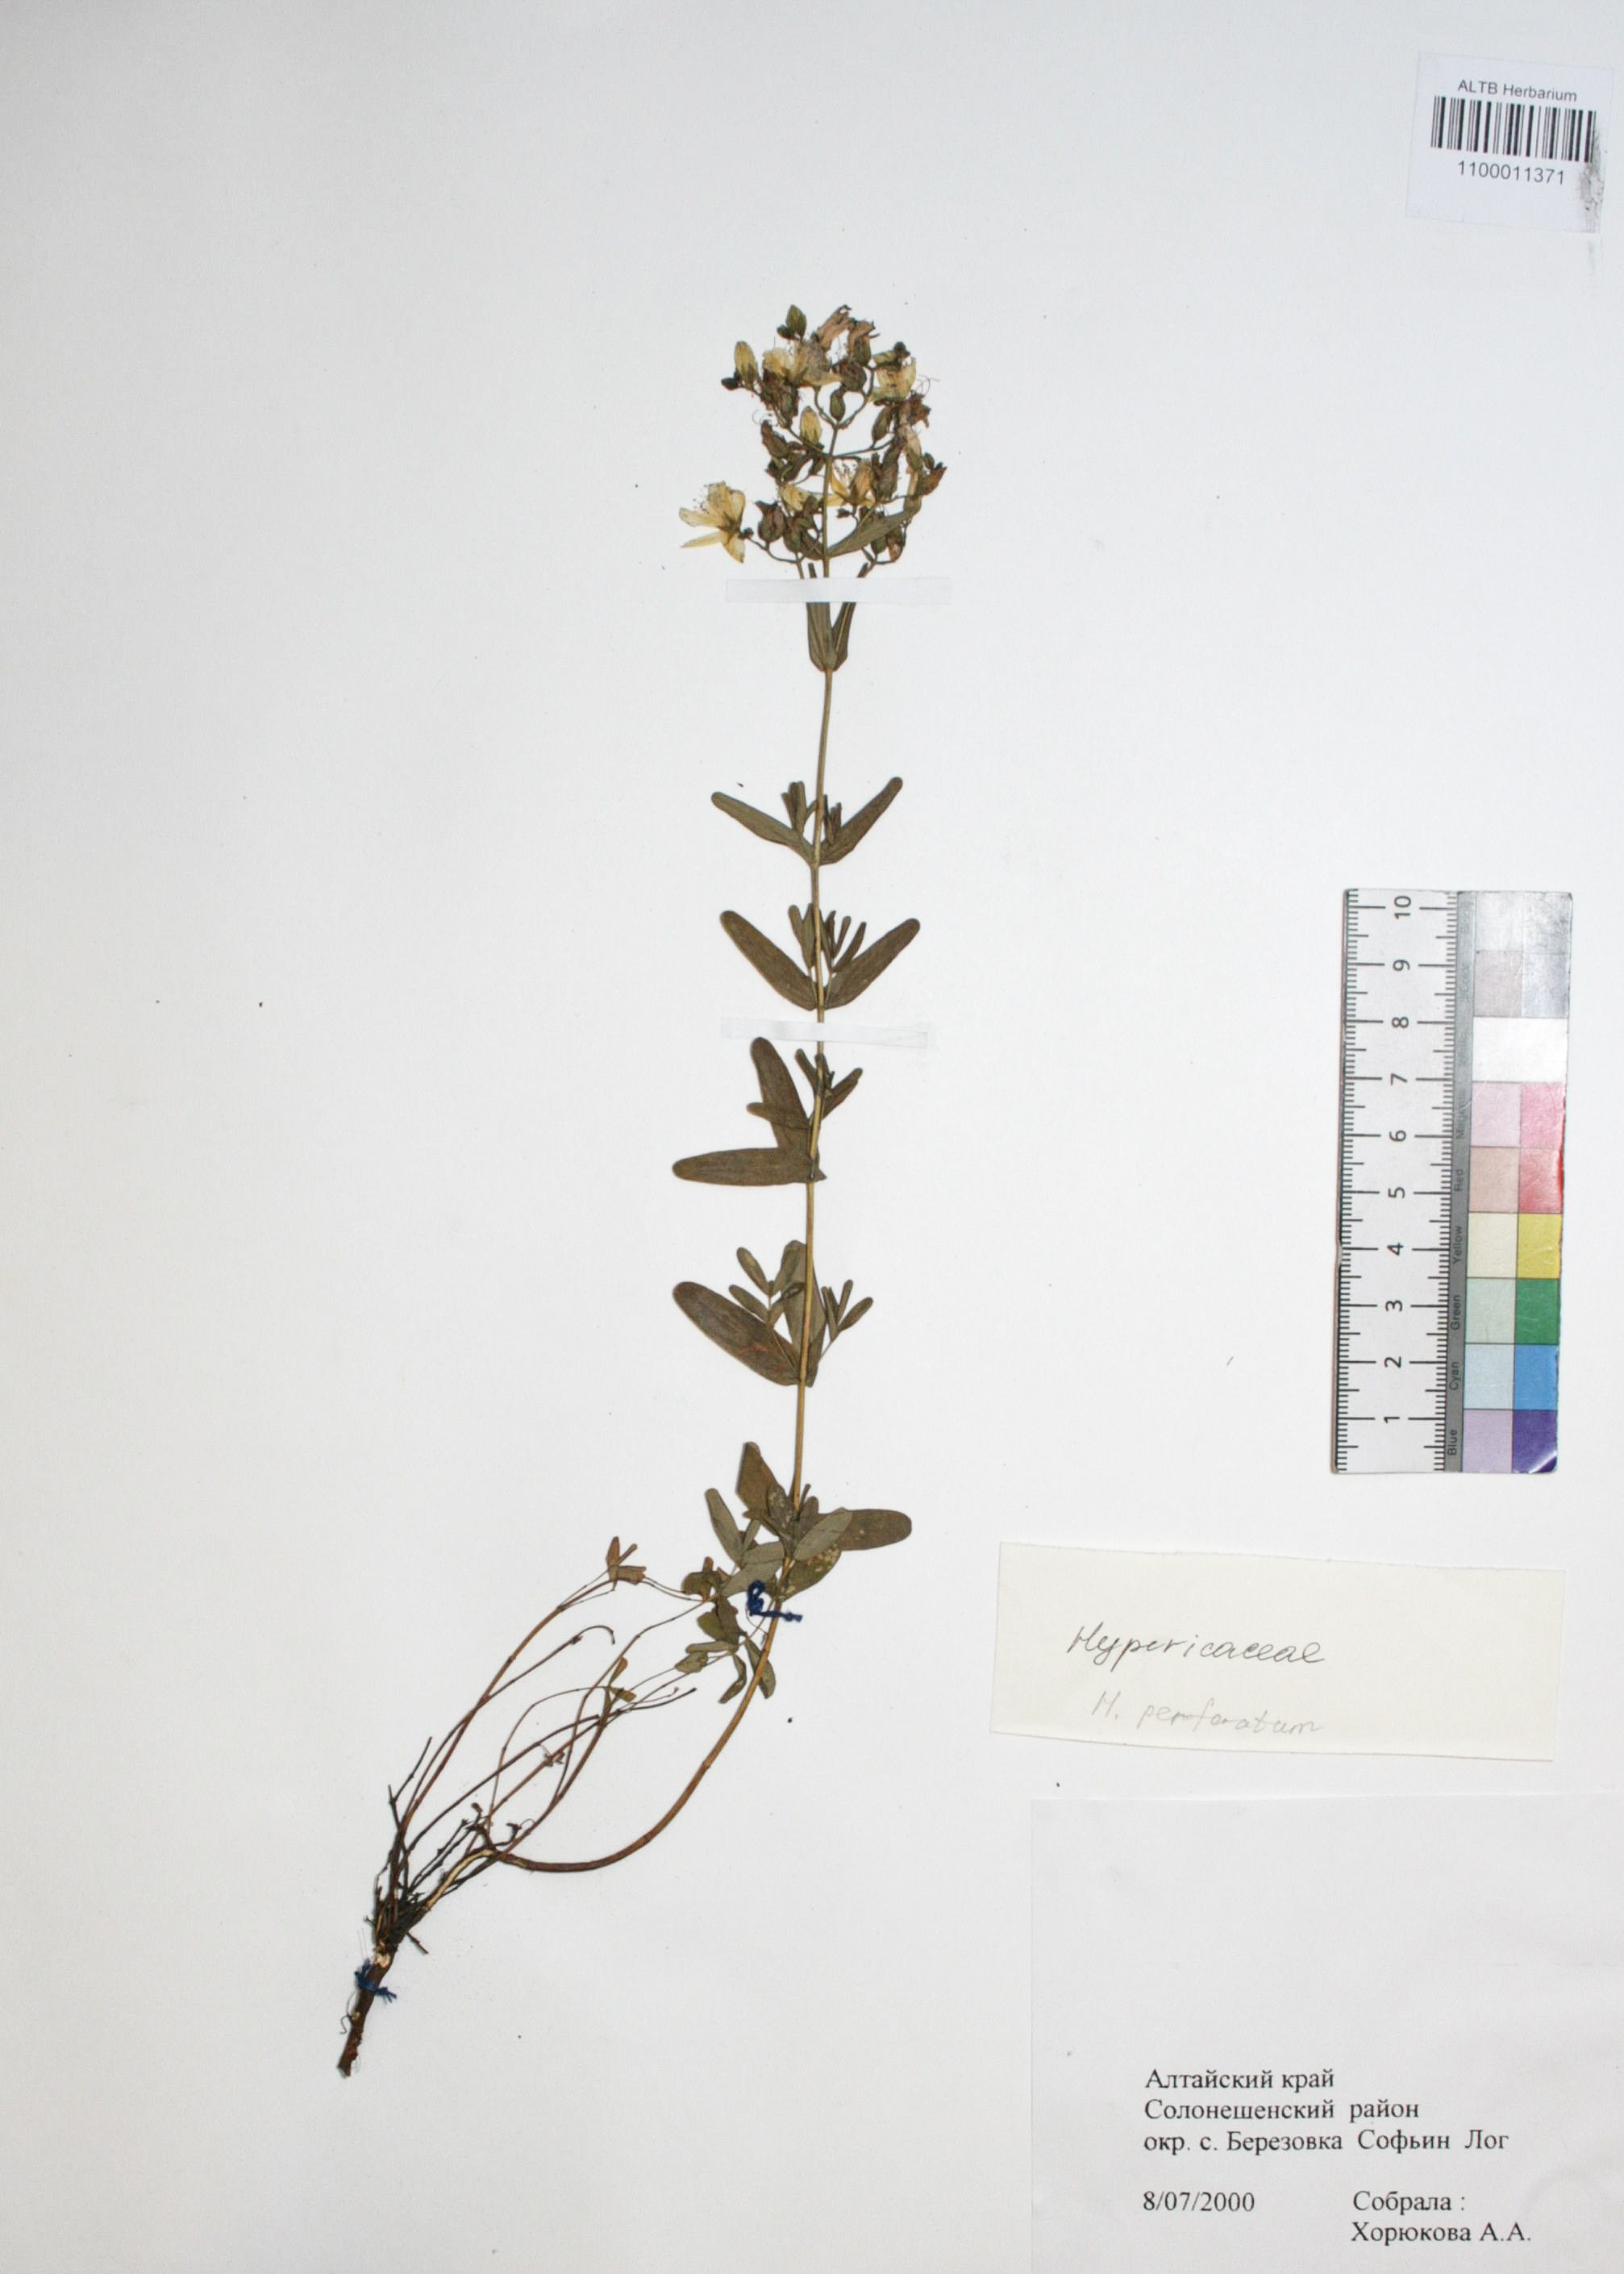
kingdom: Plantae
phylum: Tracheophyta
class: Magnoliopsida
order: Malpighiales
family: Hypericaceae
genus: Hypericum
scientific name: Hypericum perforatum
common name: Common st. johnswort
